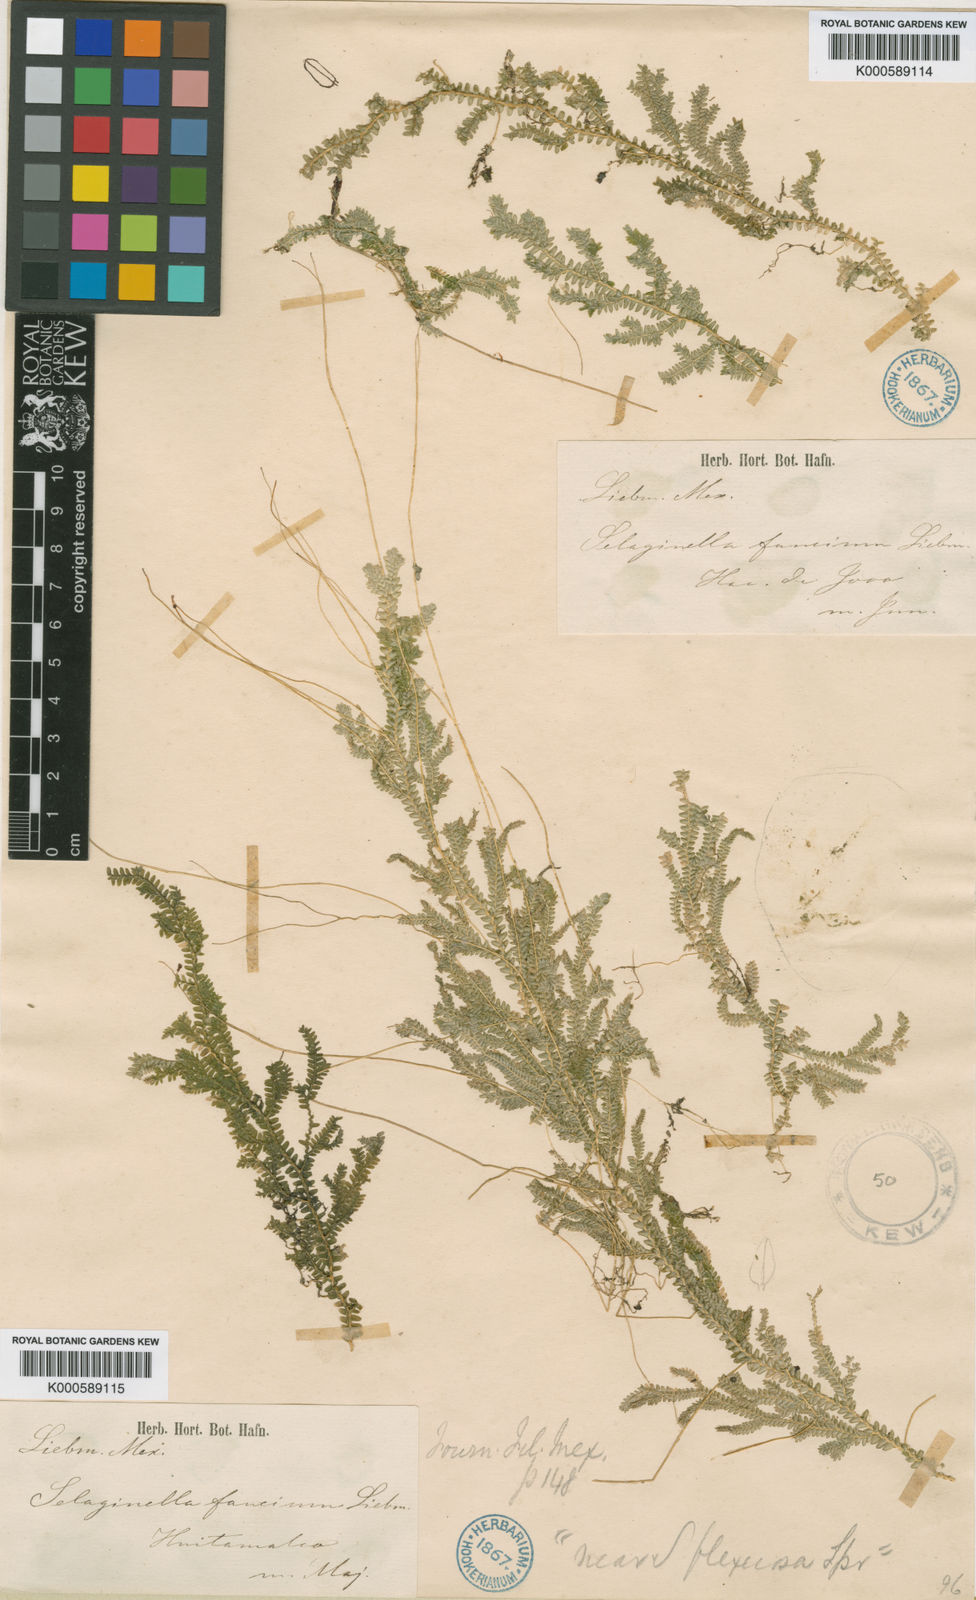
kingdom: Plantae
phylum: Tracheophyta
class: Lycopodiopsida
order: Selaginellales
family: Selaginellaceae
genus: Selaginella
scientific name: Selaginella
